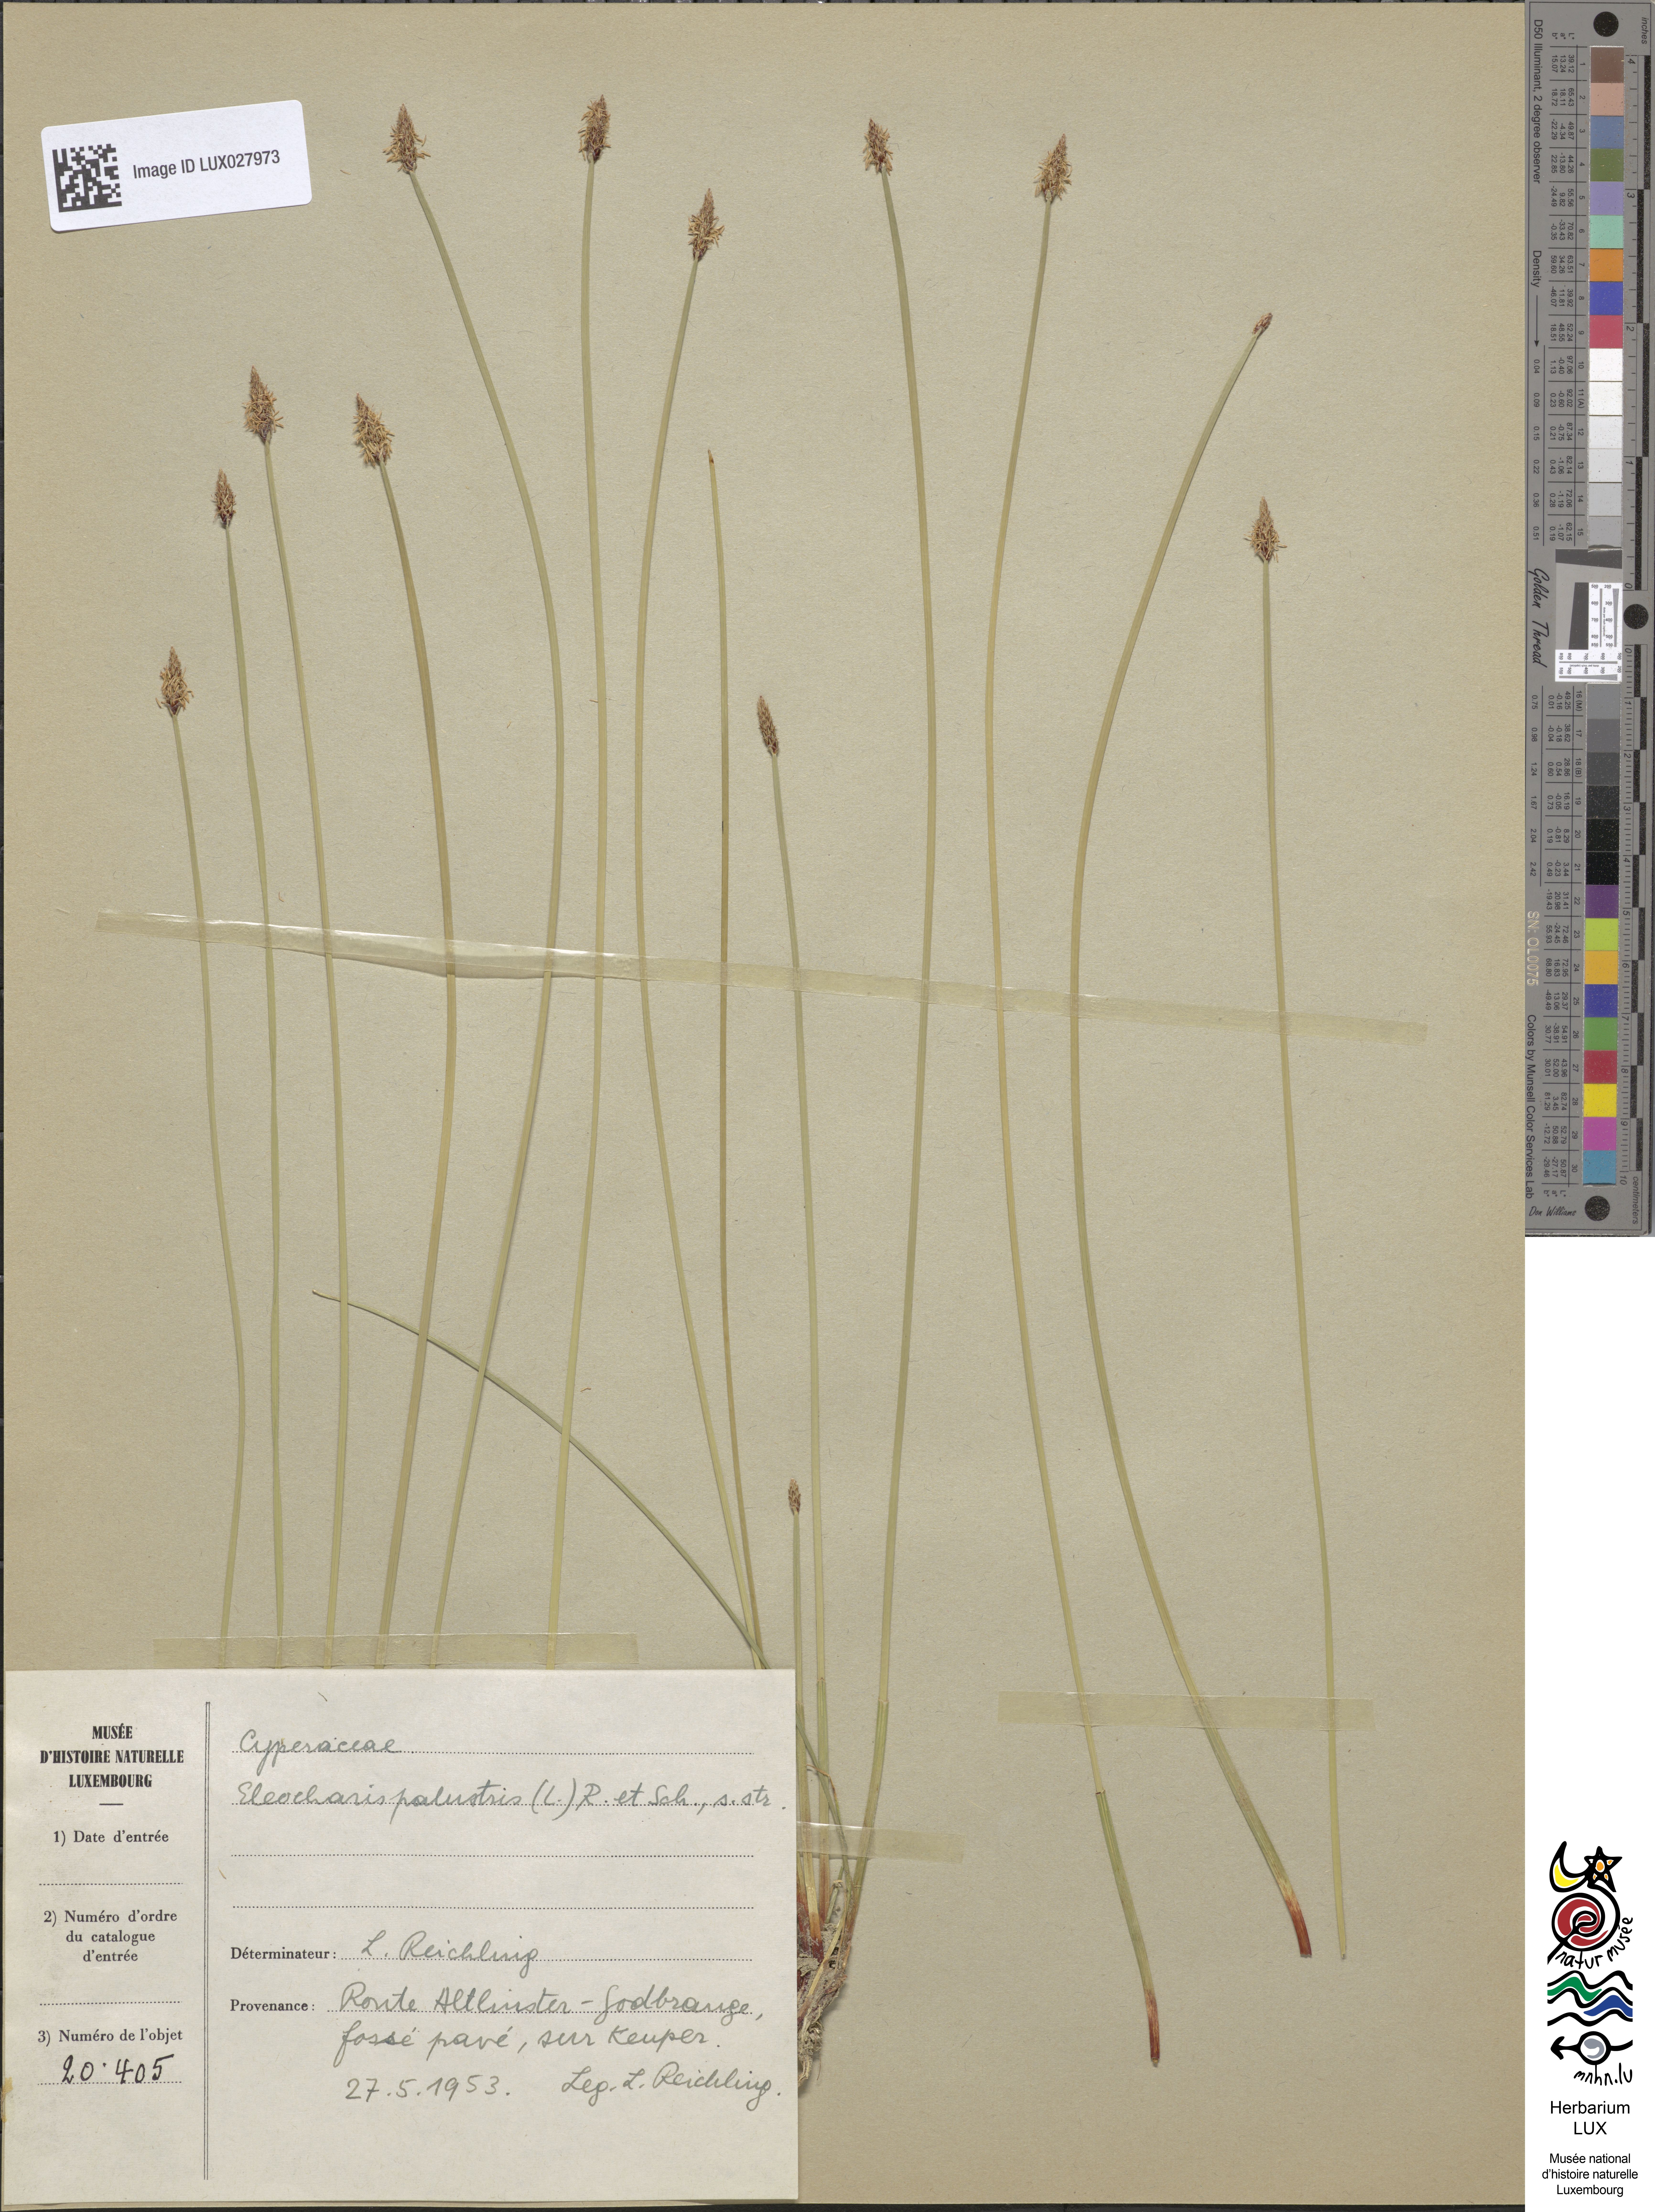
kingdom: Plantae
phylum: Tracheophyta
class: Liliopsida
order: Poales
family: Cyperaceae
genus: Eleocharis
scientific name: Eleocharis uniglumis
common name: Slender spike-rush
